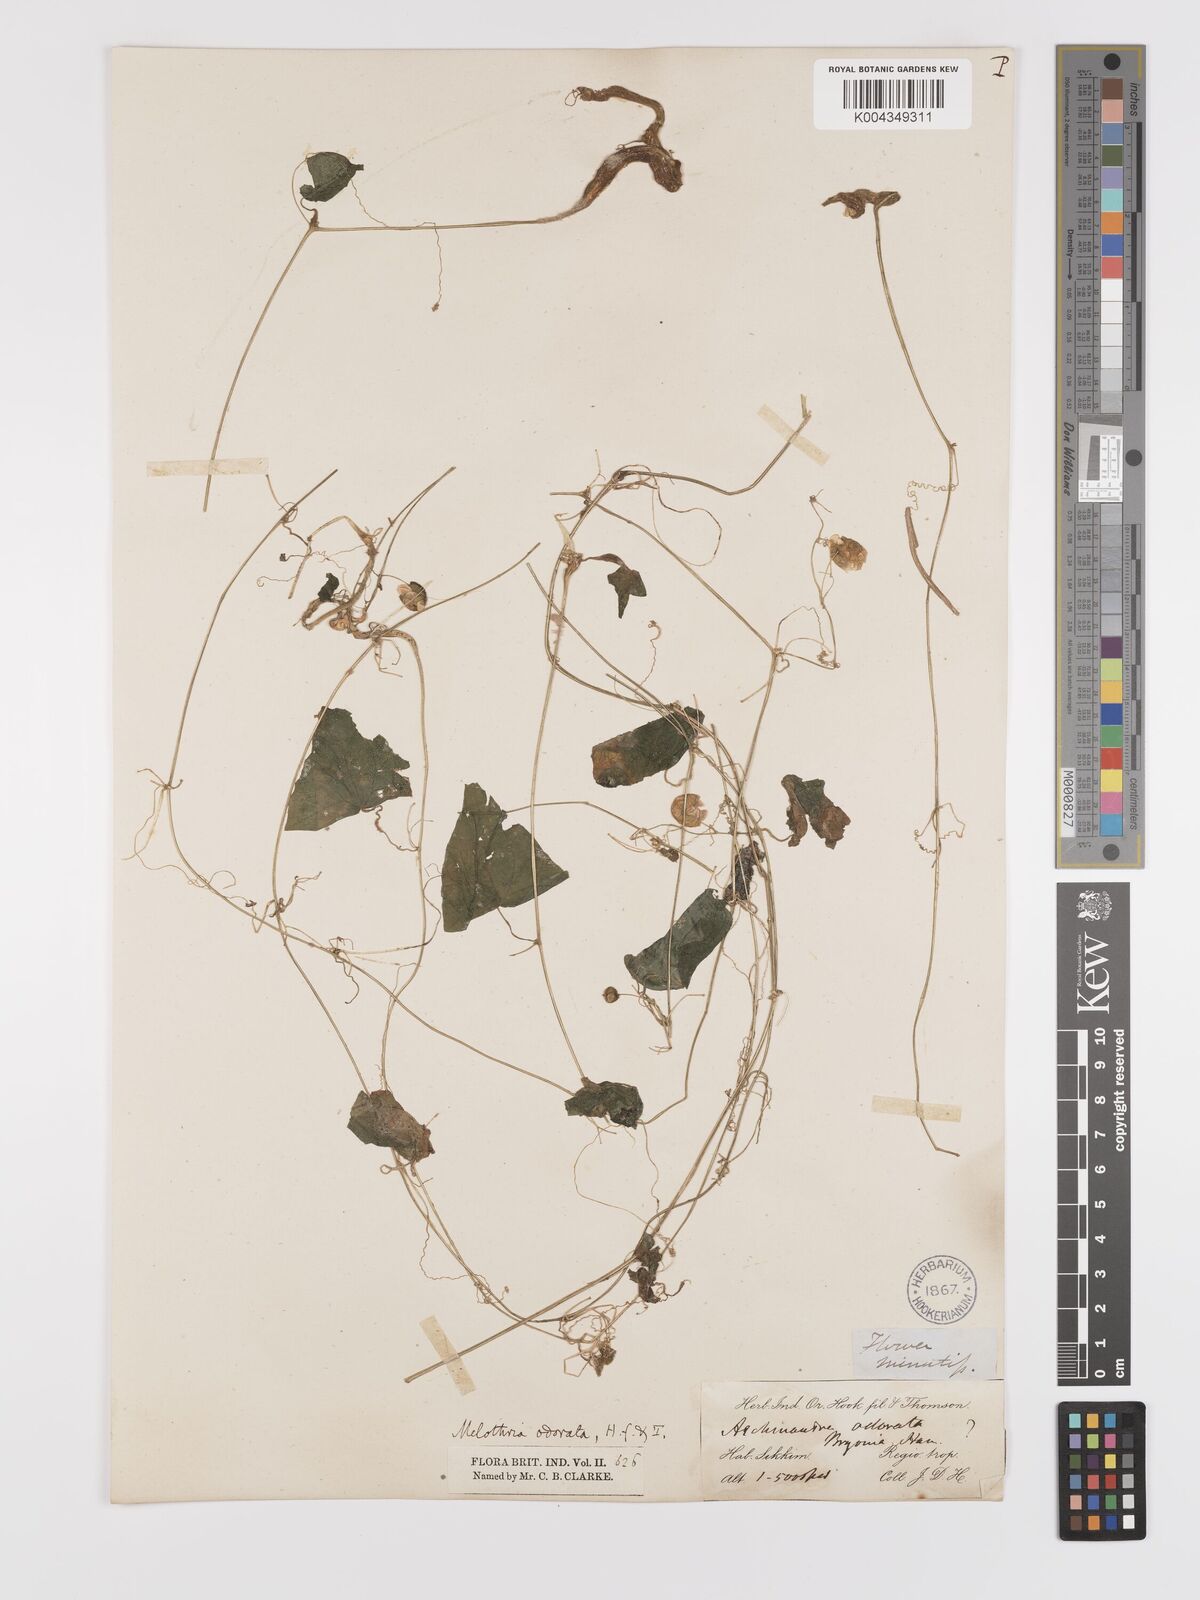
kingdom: Plantae
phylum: Tracheophyta
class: Magnoliopsida
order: Cucurbitales
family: Cucurbitaceae
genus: Zehneria
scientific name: Zehneria odorata
